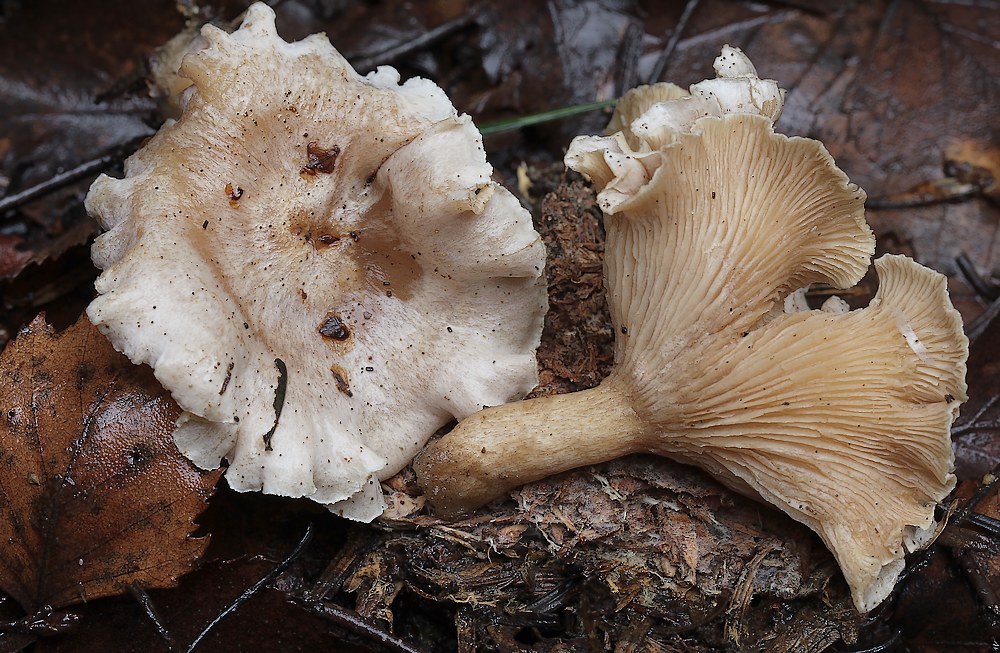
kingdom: Fungi
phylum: Basidiomycota
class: Agaricomycetes
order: Agaricales
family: Tricholomataceae
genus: Clitocybe
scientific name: Clitocybe phyllophila
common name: løv-tragthat
